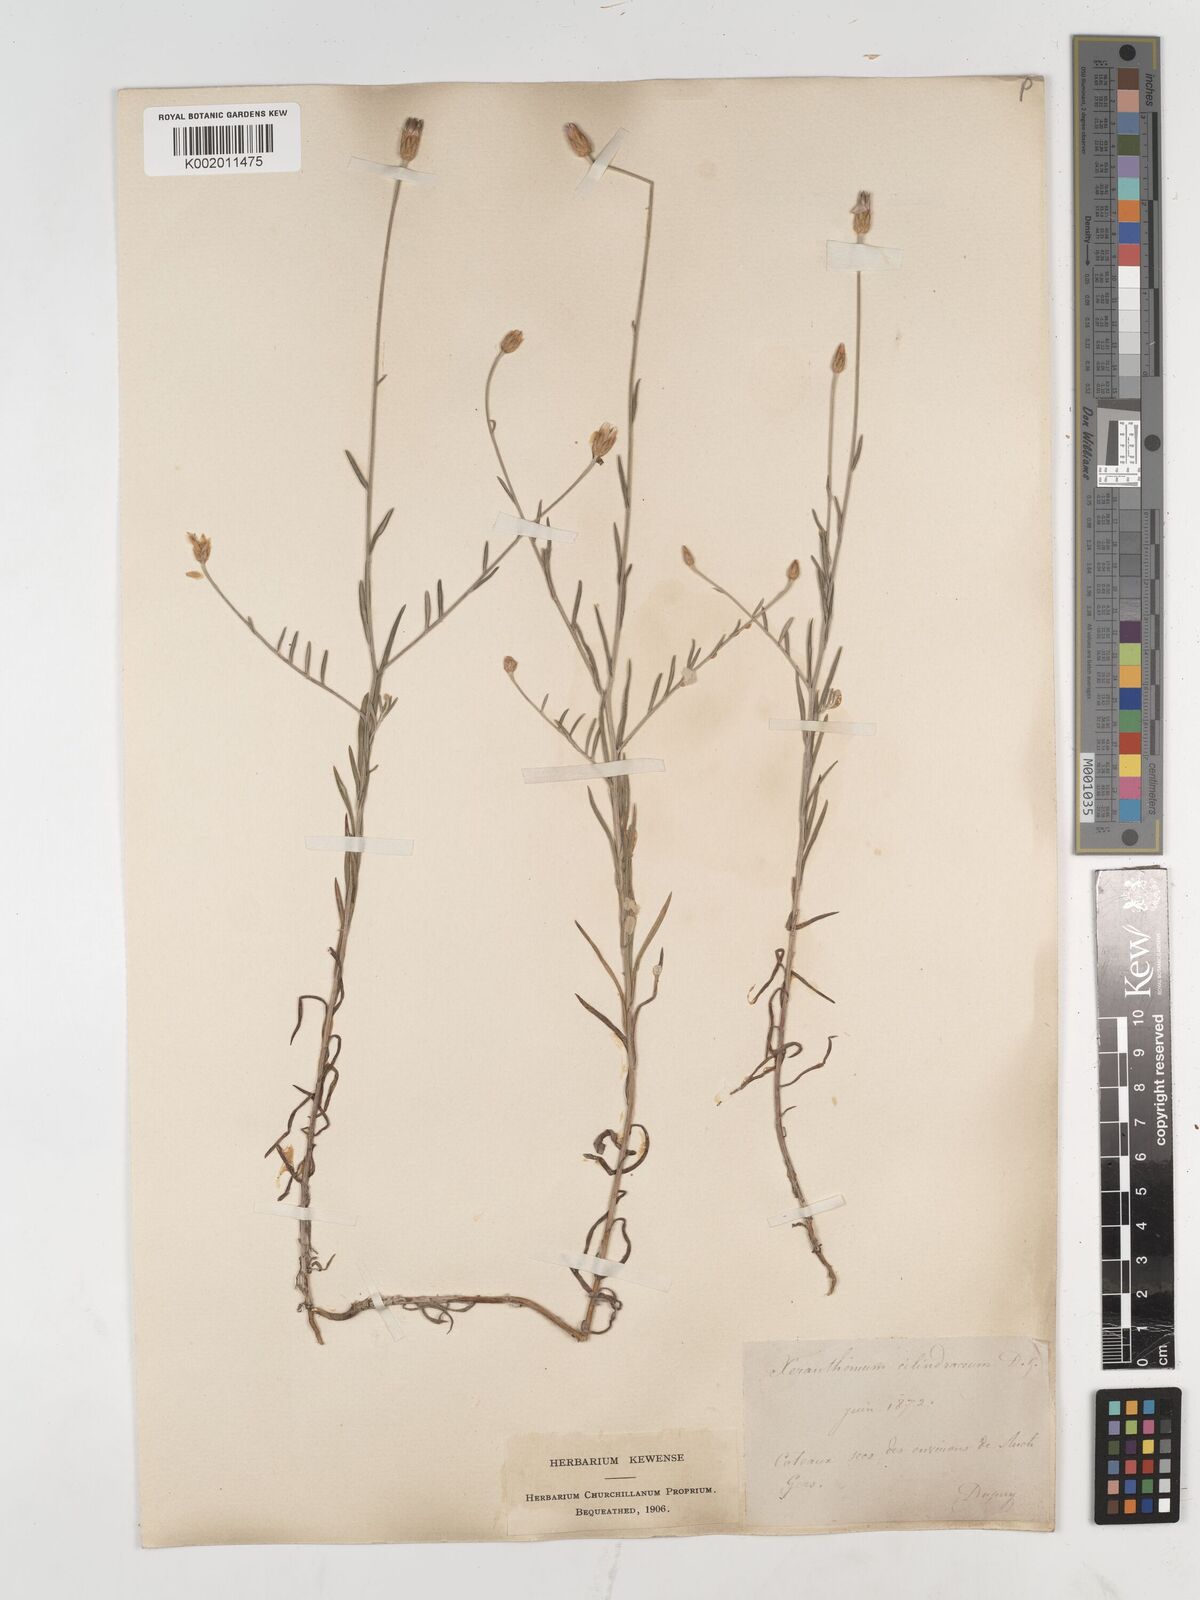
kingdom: Plantae
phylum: Tracheophyta
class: Magnoliopsida
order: Asterales
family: Asteraceae
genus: Xeranthemum
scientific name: Xeranthemum cylindraceum
